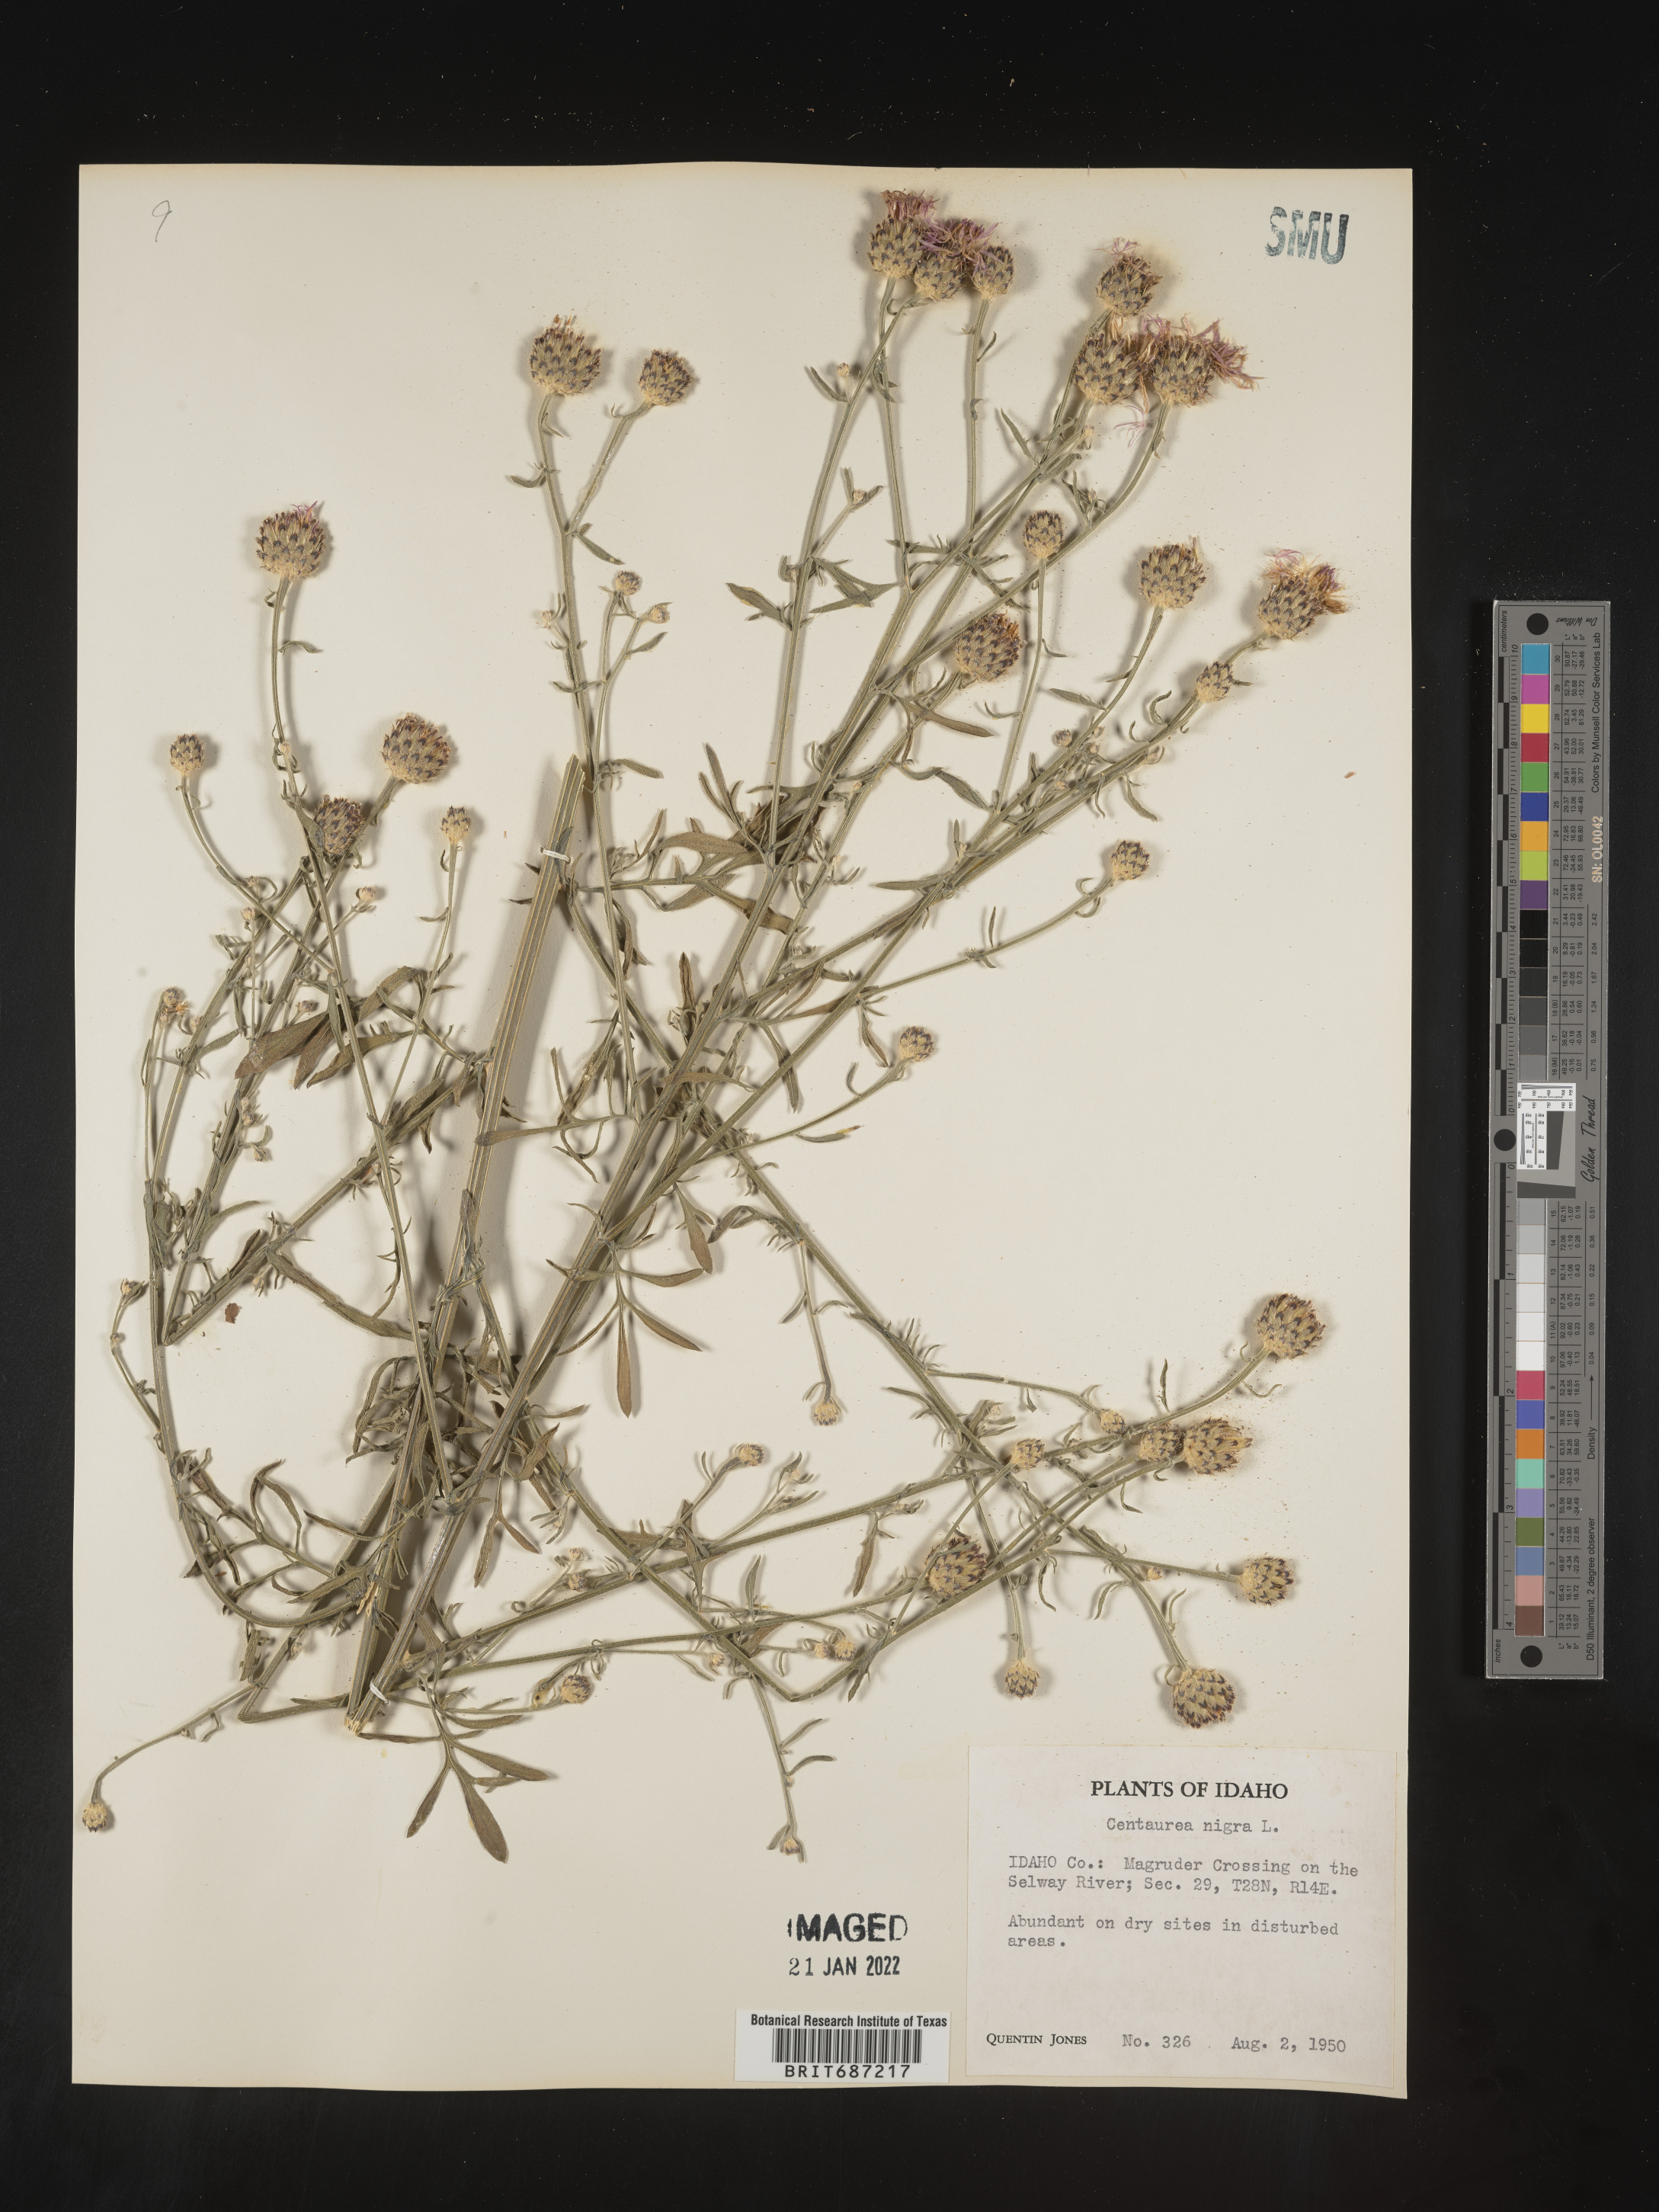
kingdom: Plantae
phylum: Tracheophyta
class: Magnoliopsida
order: Asterales
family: Asteraceae
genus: Centaurea
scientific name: Centaurea nigra
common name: Lesser knapweed
